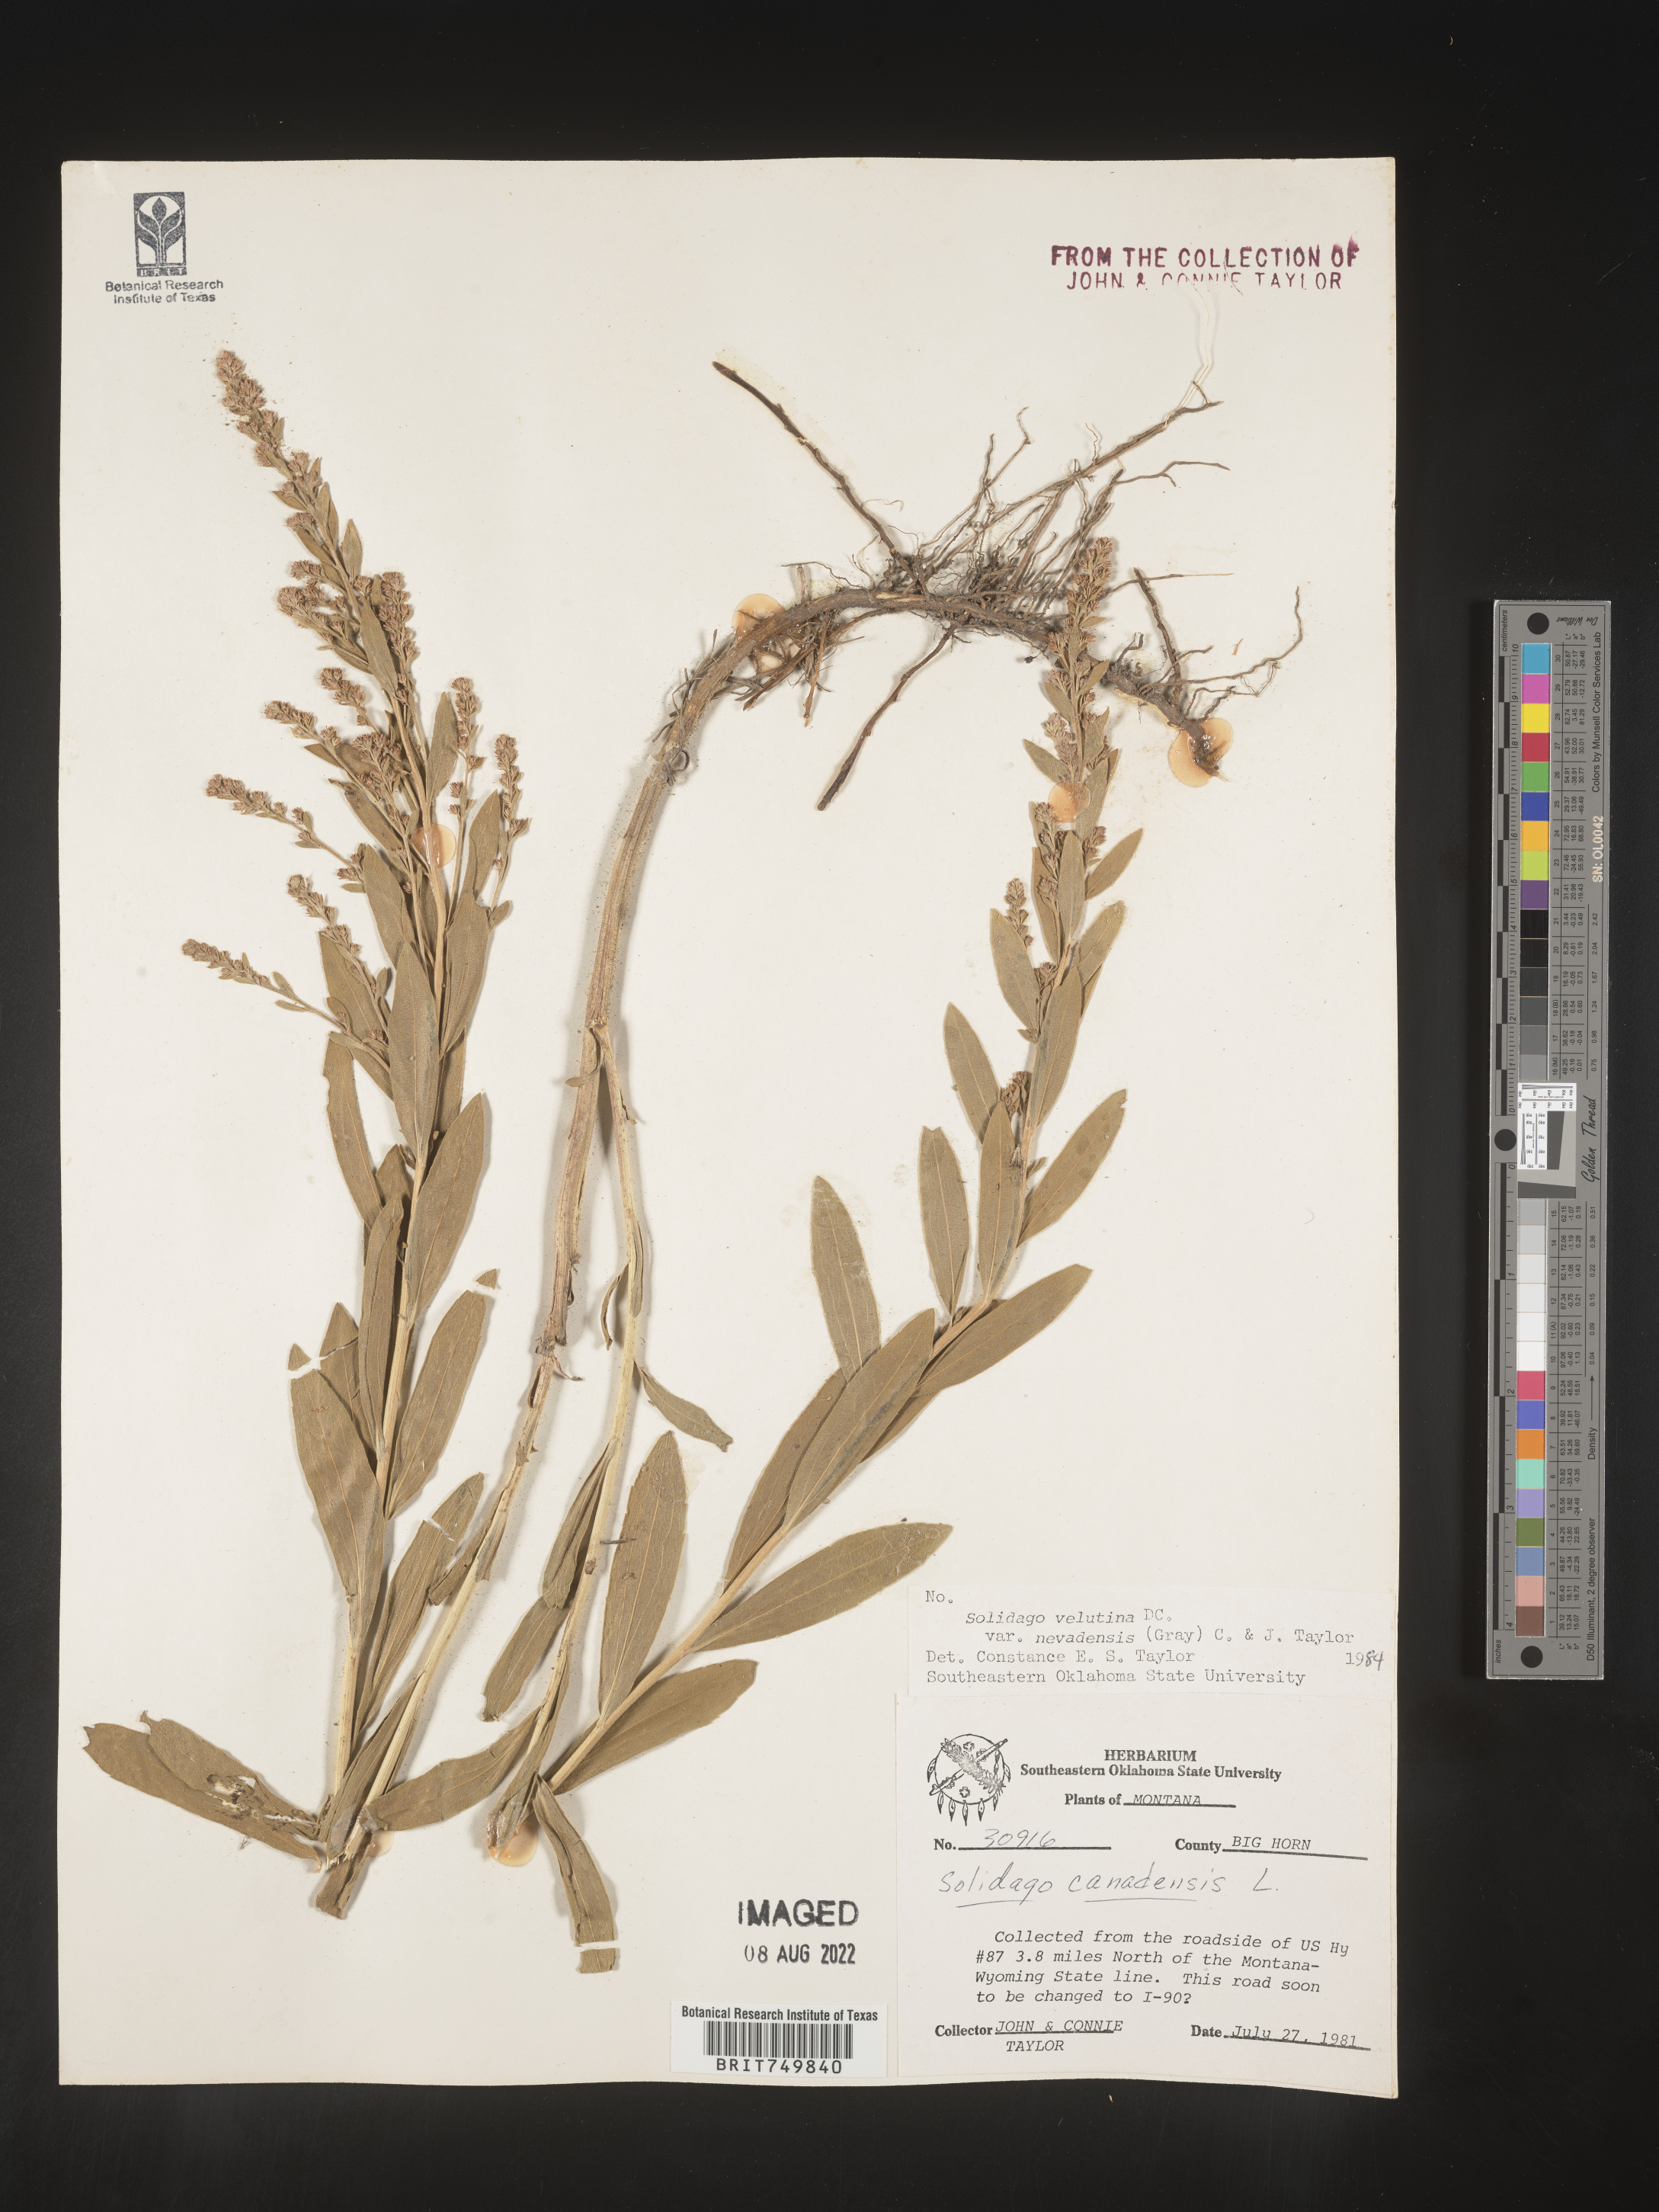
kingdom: Plantae
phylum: Tracheophyta
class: Magnoliopsida
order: Asterales
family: Asteraceae
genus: Solidago
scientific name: Solidago velutina
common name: Three-nerve goldenrod
